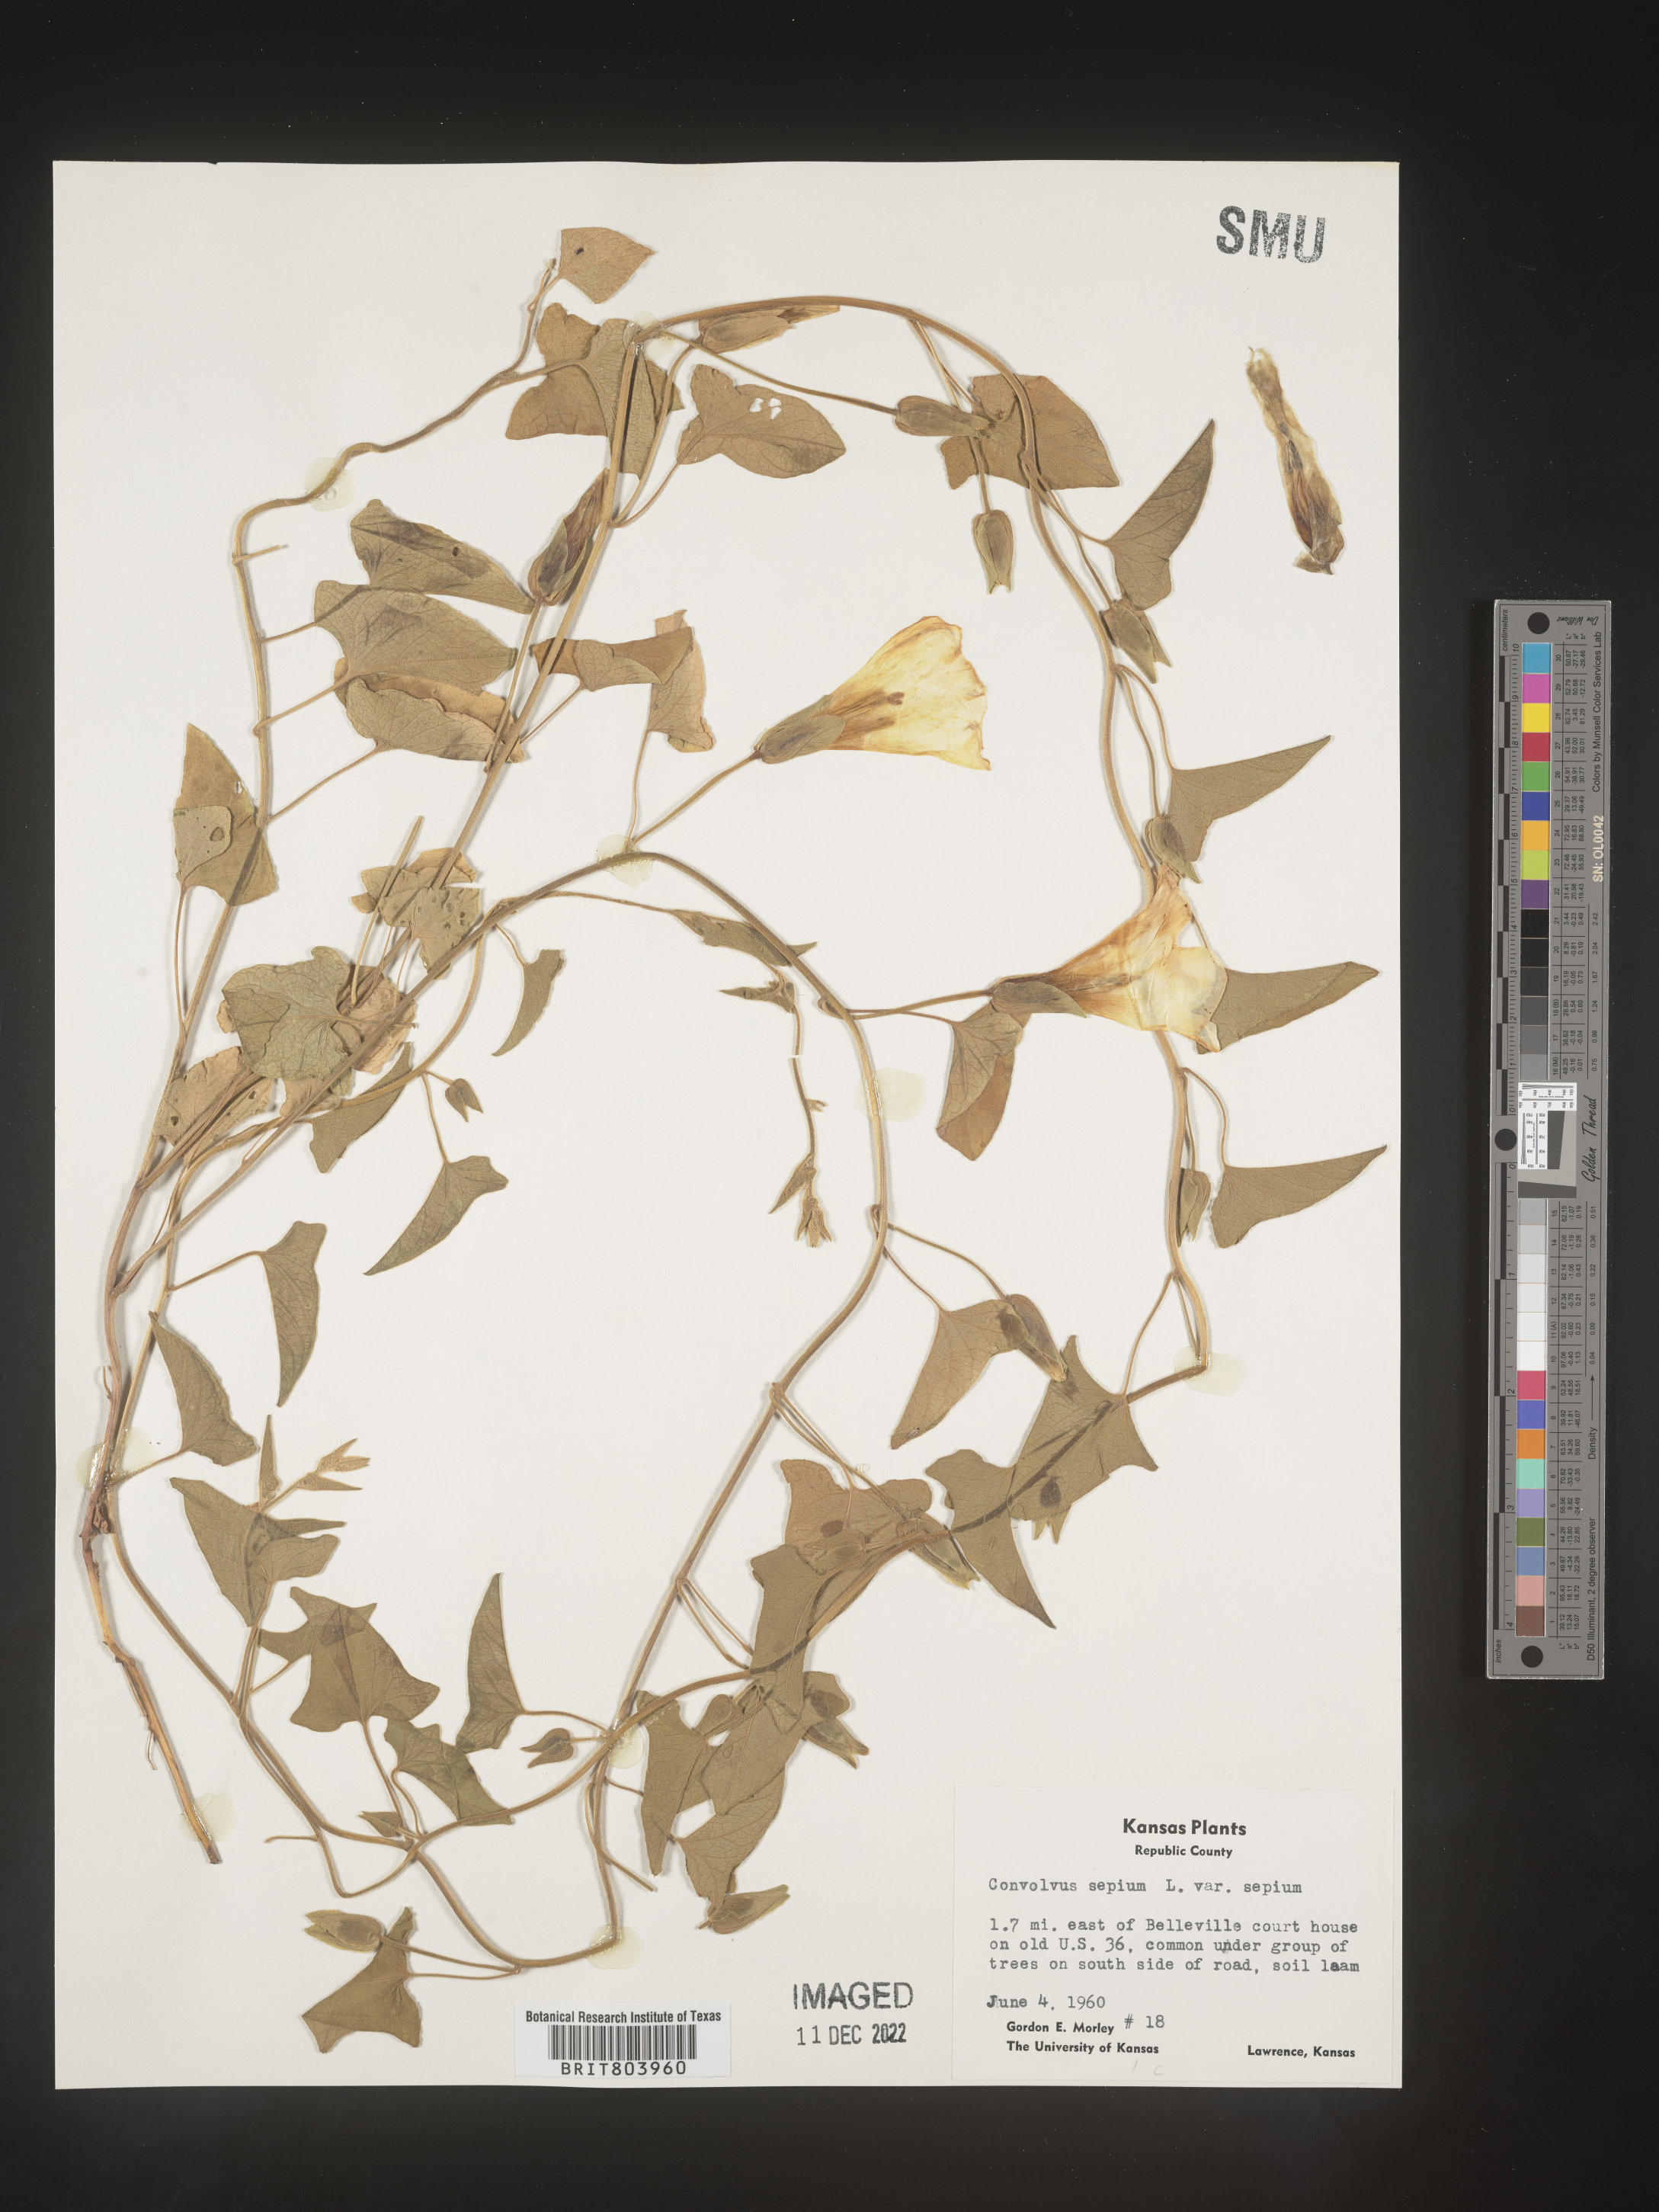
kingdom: Plantae
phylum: Tracheophyta
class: Magnoliopsida
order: Solanales
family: Convolvulaceae
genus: Calystegia
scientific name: Calystegia sepium
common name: Hedge bindweed
